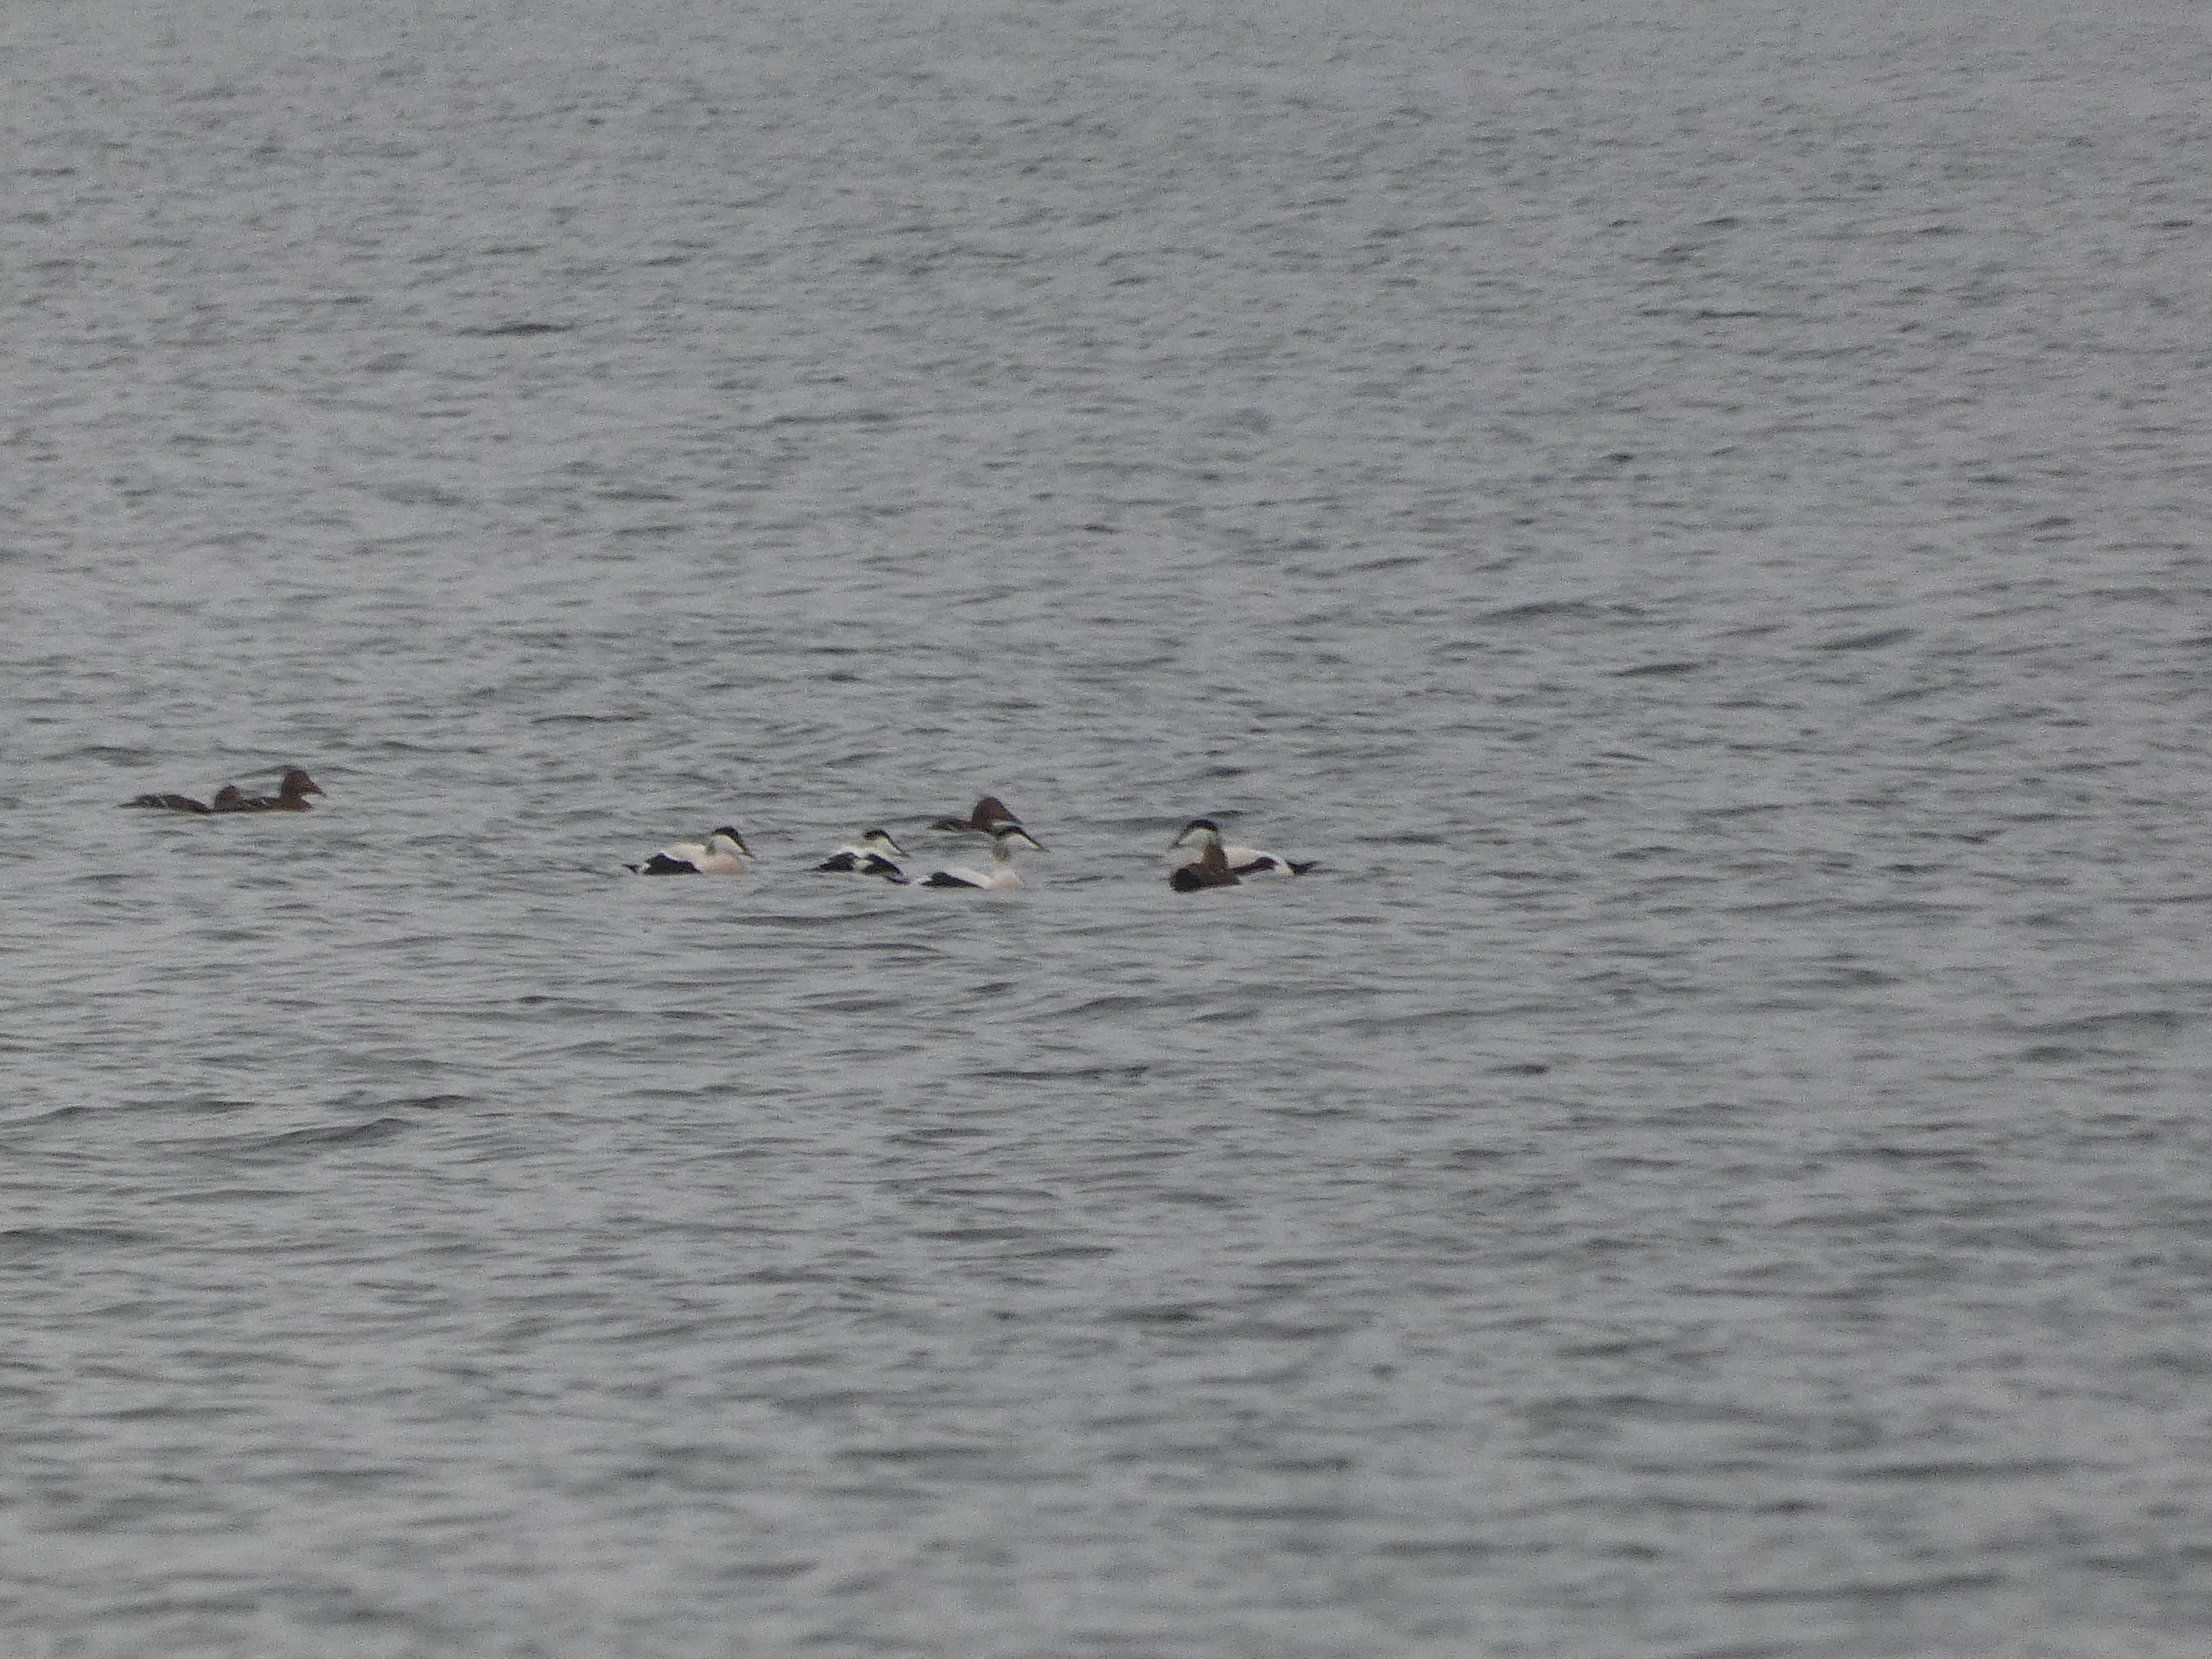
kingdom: Animalia
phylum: Chordata
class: Aves
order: Anseriformes
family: Anatidae
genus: Somateria
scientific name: Somateria mollissima
